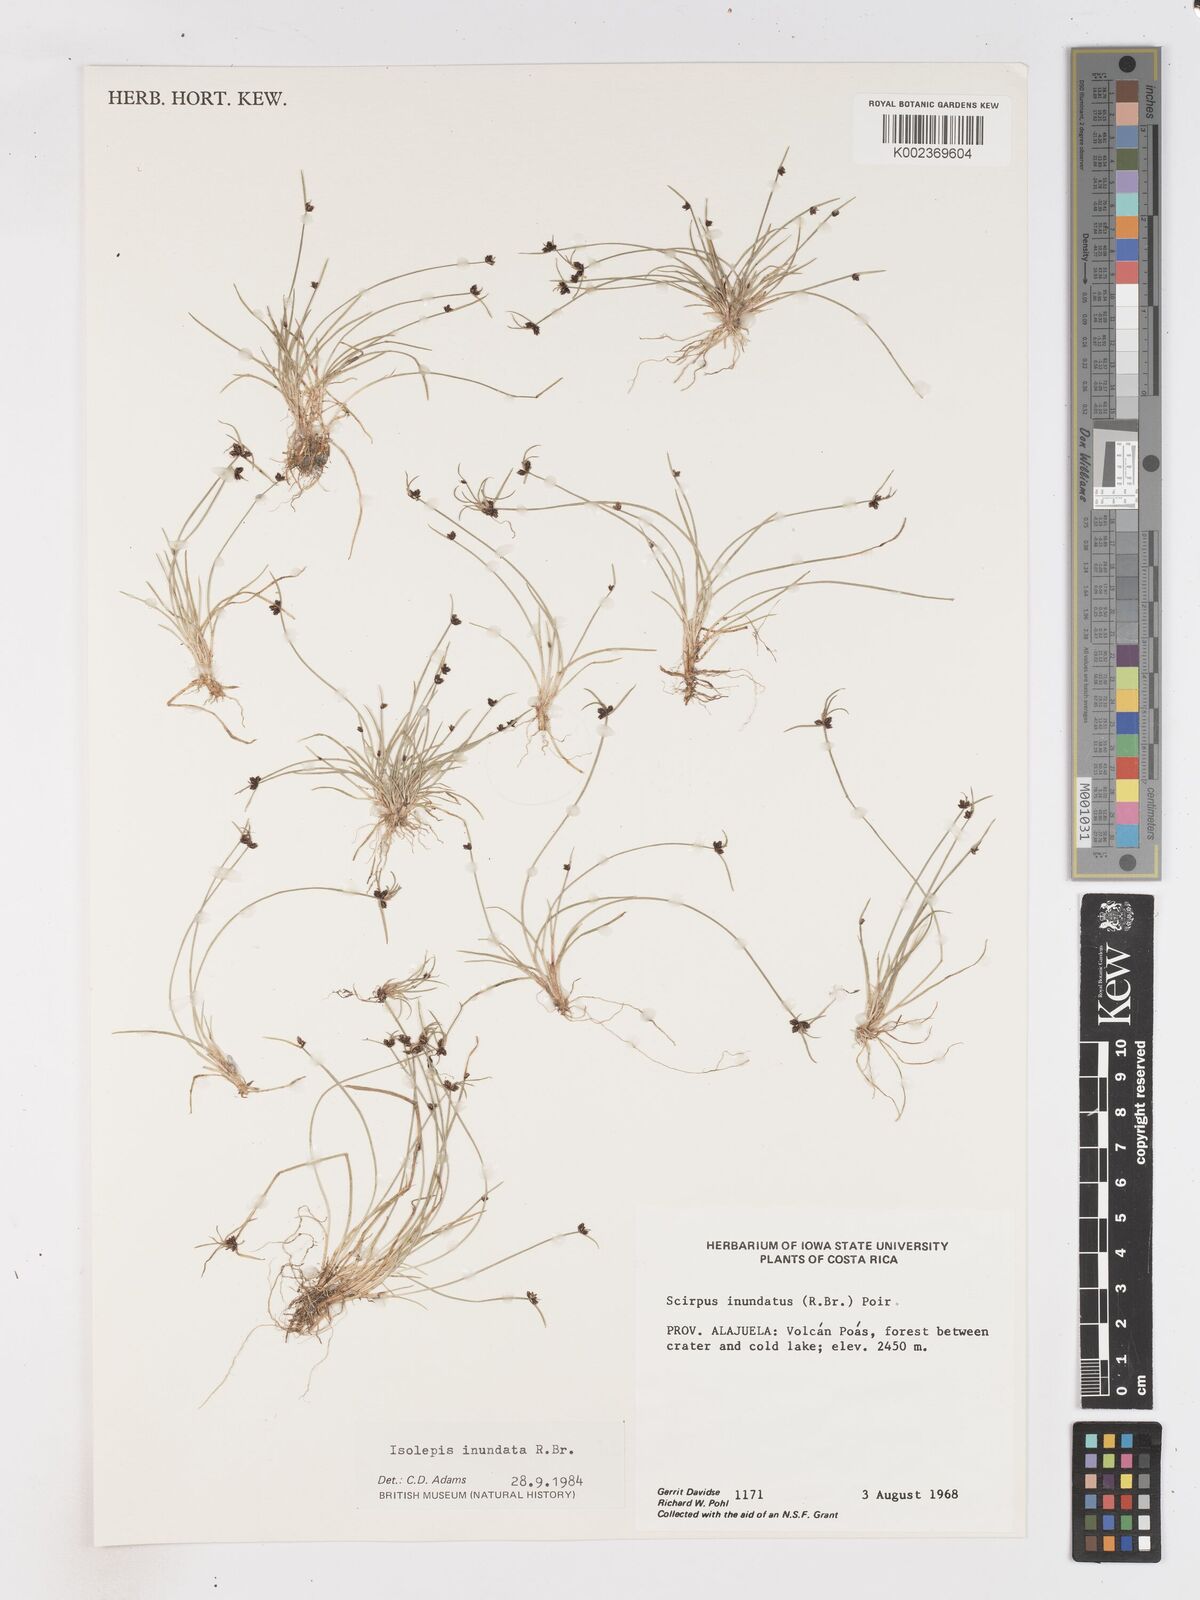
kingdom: Plantae
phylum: Tracheophyta
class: Liliopsida
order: Poales
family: Cyperaceae
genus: Isolepis
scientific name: Isolepis inundata
